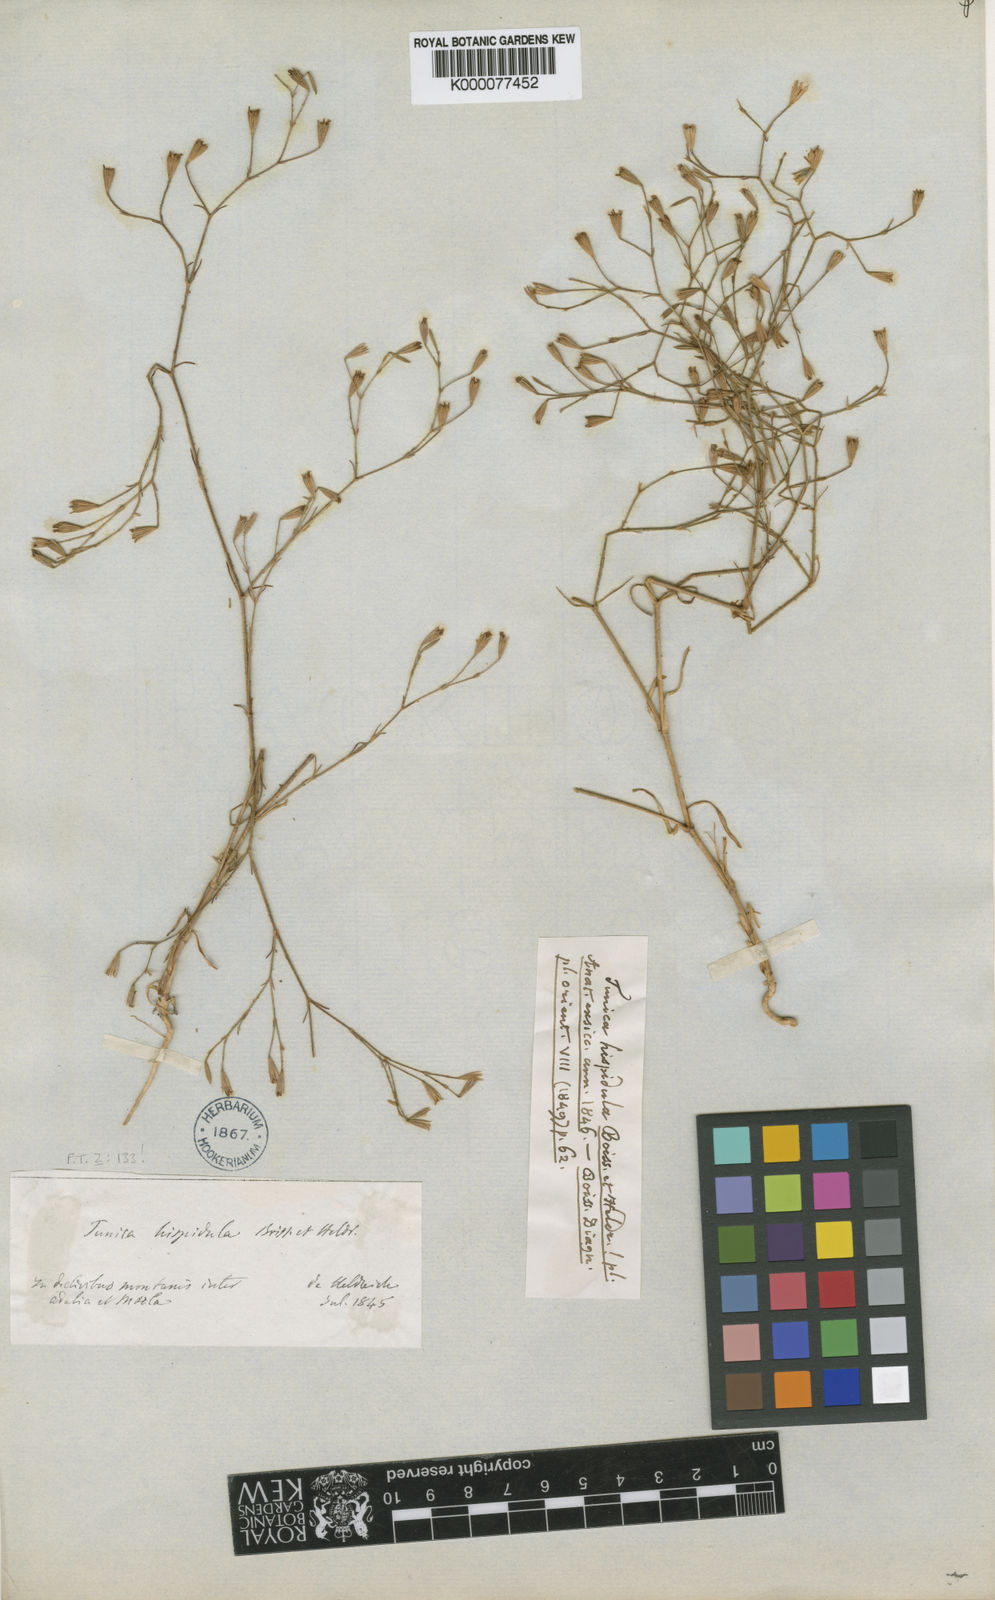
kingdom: Plantae
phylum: Tracheophyta
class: Magnoliopsida
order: Caryophyllales
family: Caryophyllaceae
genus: Petrorhagia
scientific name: Petrorhagia hispidula
